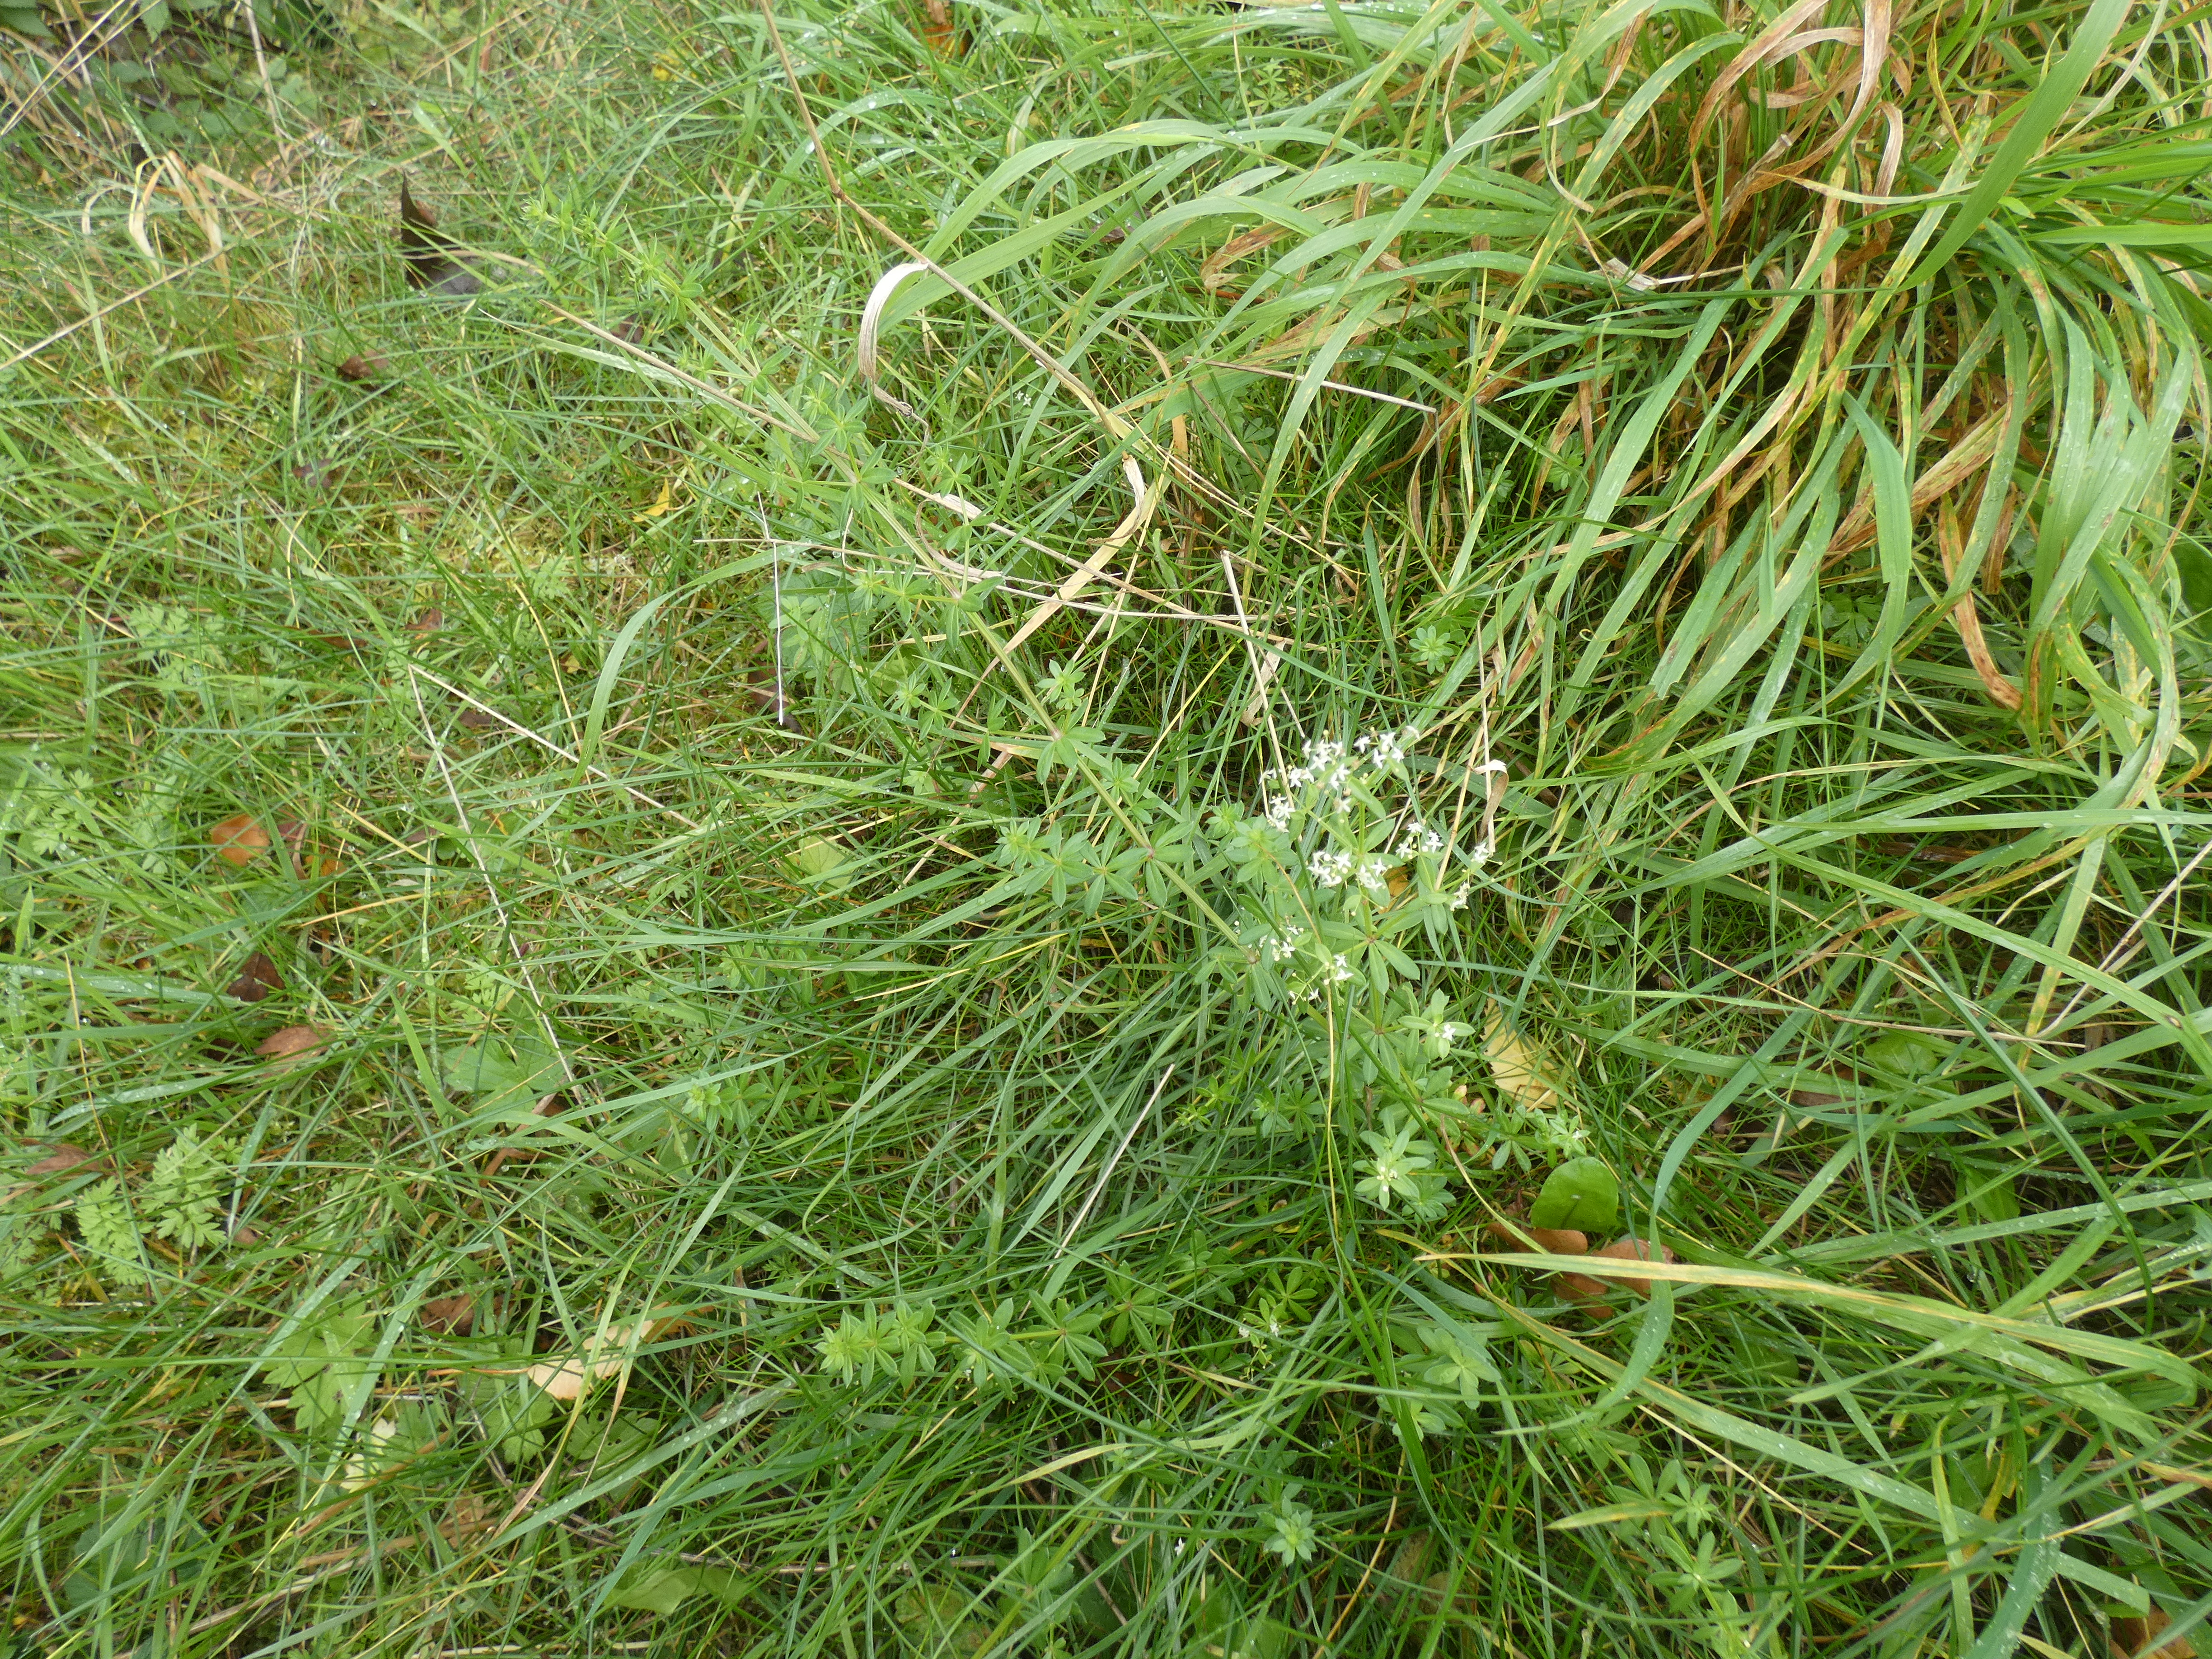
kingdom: Plantae
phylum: Tracheophyta
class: Magnoliopsida
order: Gentianales
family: Rubiaceae
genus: Galium
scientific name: Galium mollugo
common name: Hvid snerre
